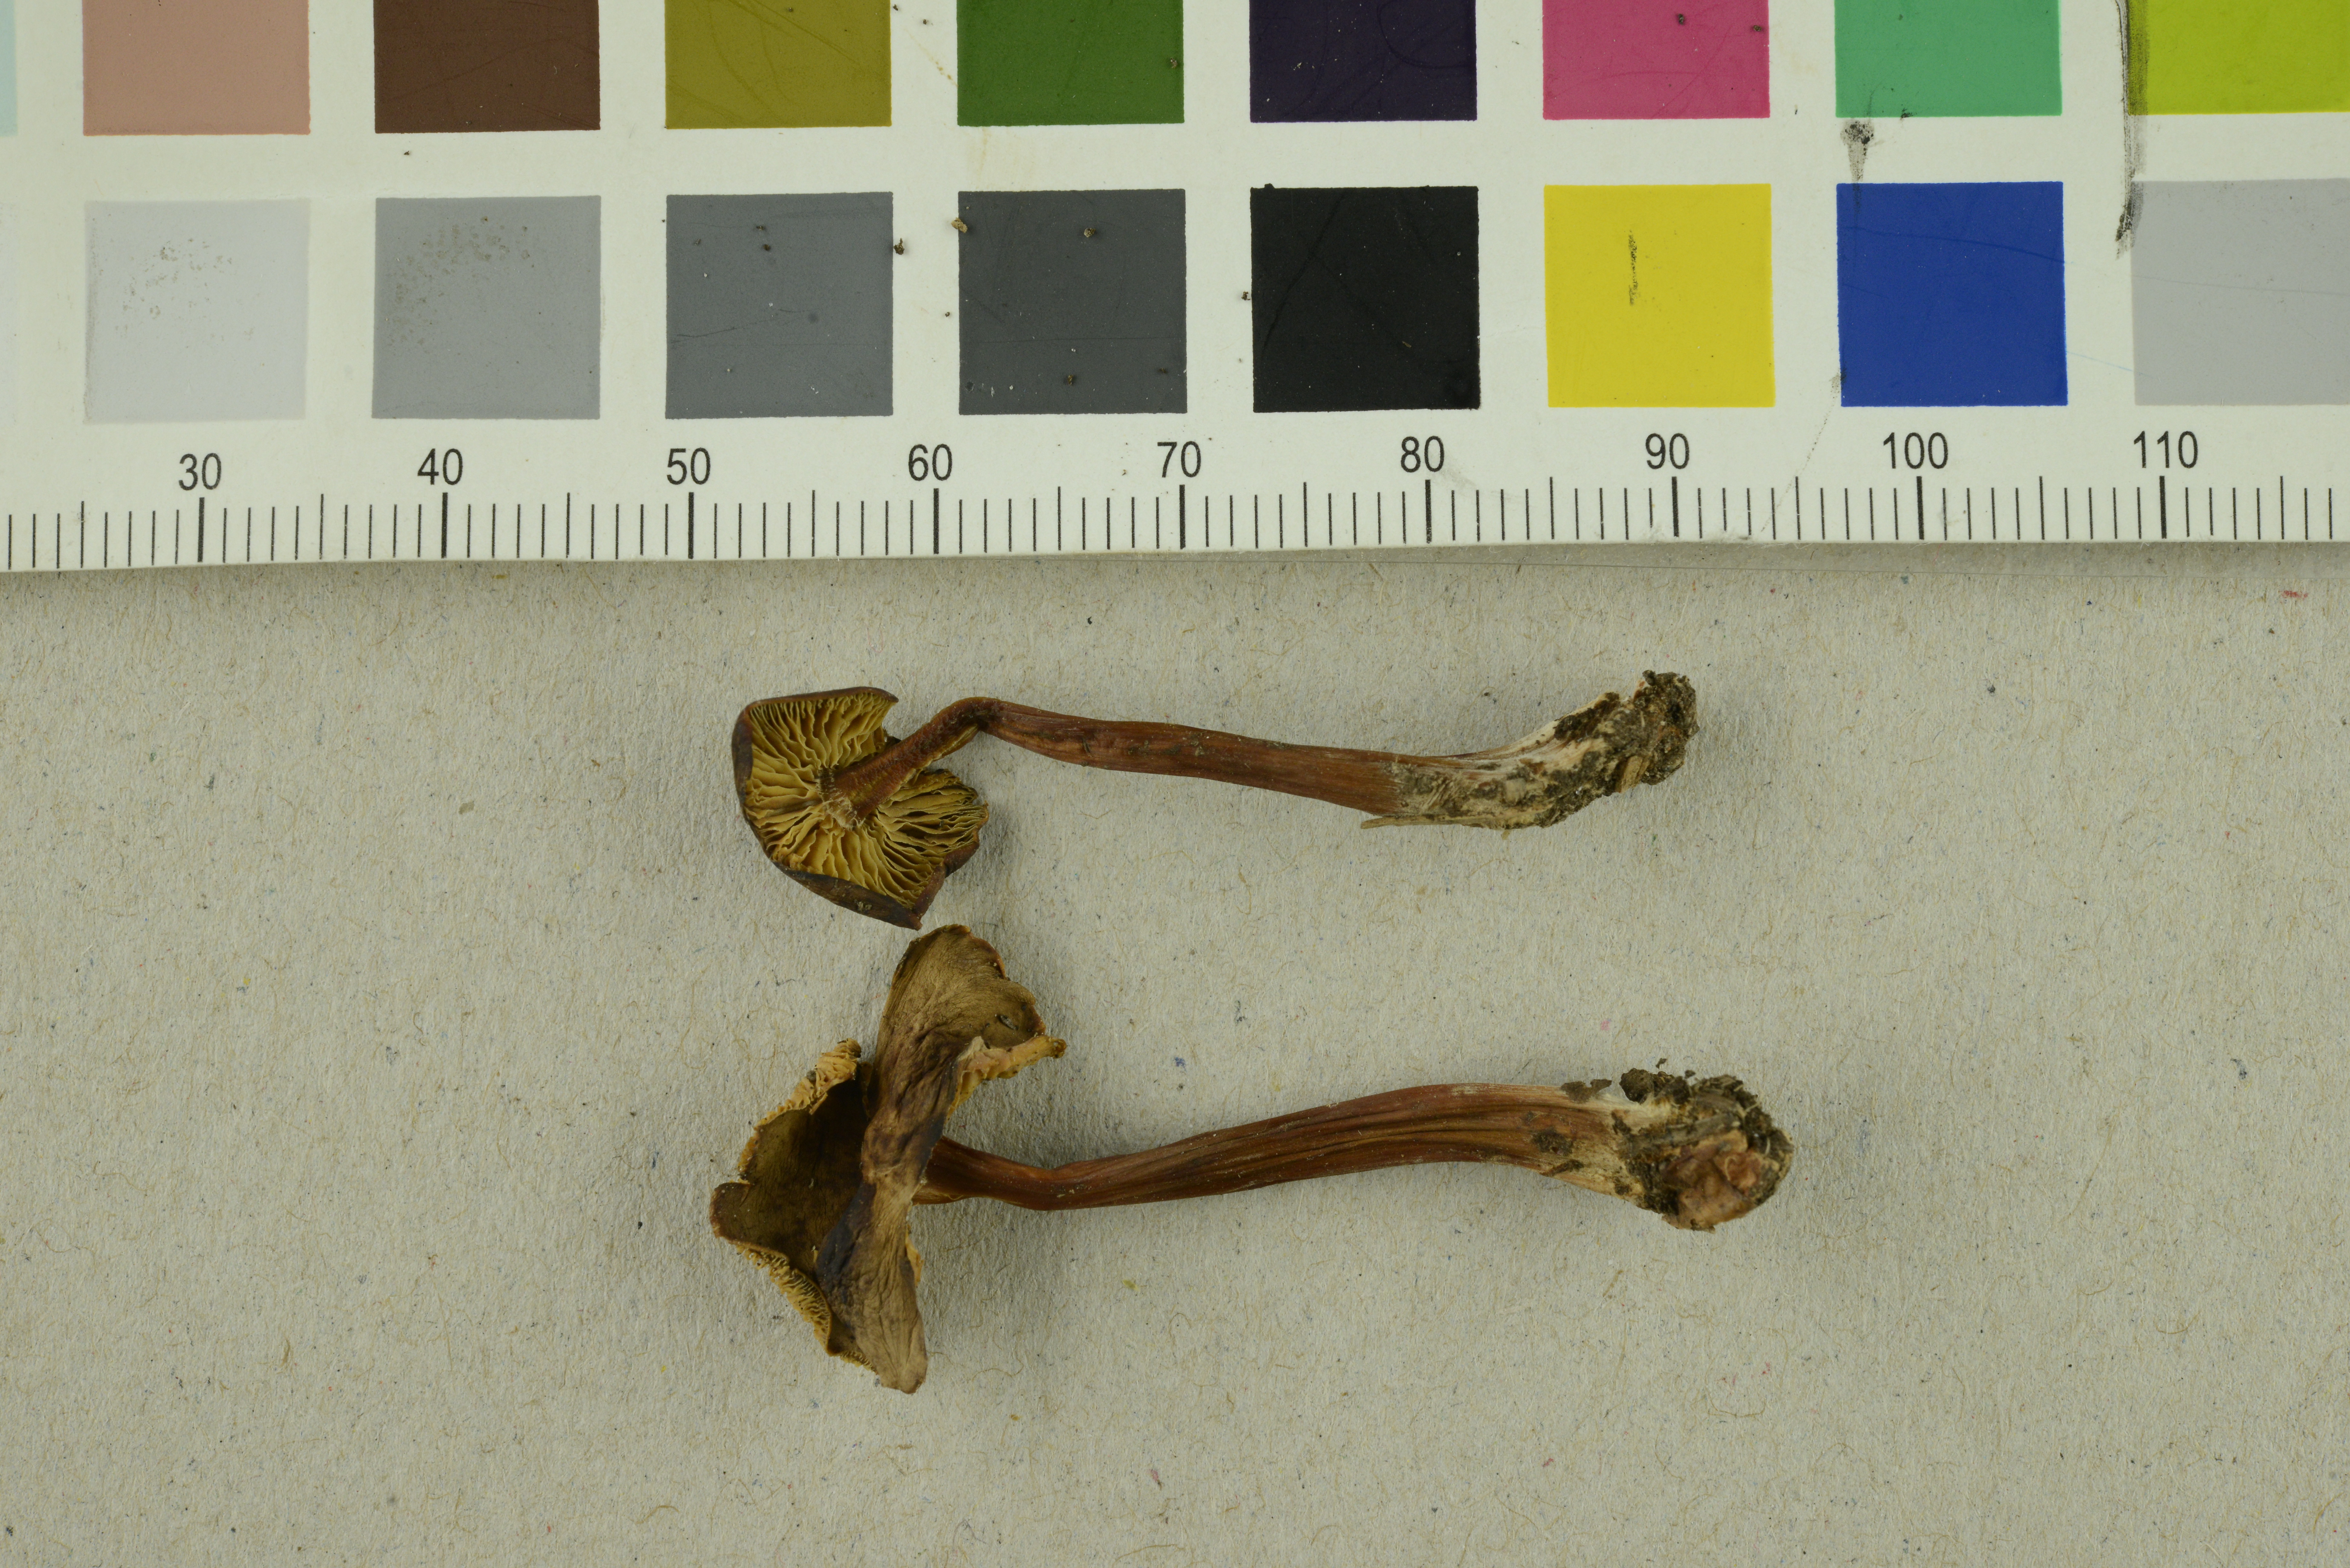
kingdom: Fungi
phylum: Basidiomycota
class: Agaricomycetes
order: Agaricales
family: Tricholomataceae
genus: Collybia
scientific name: Collybia macilenta
